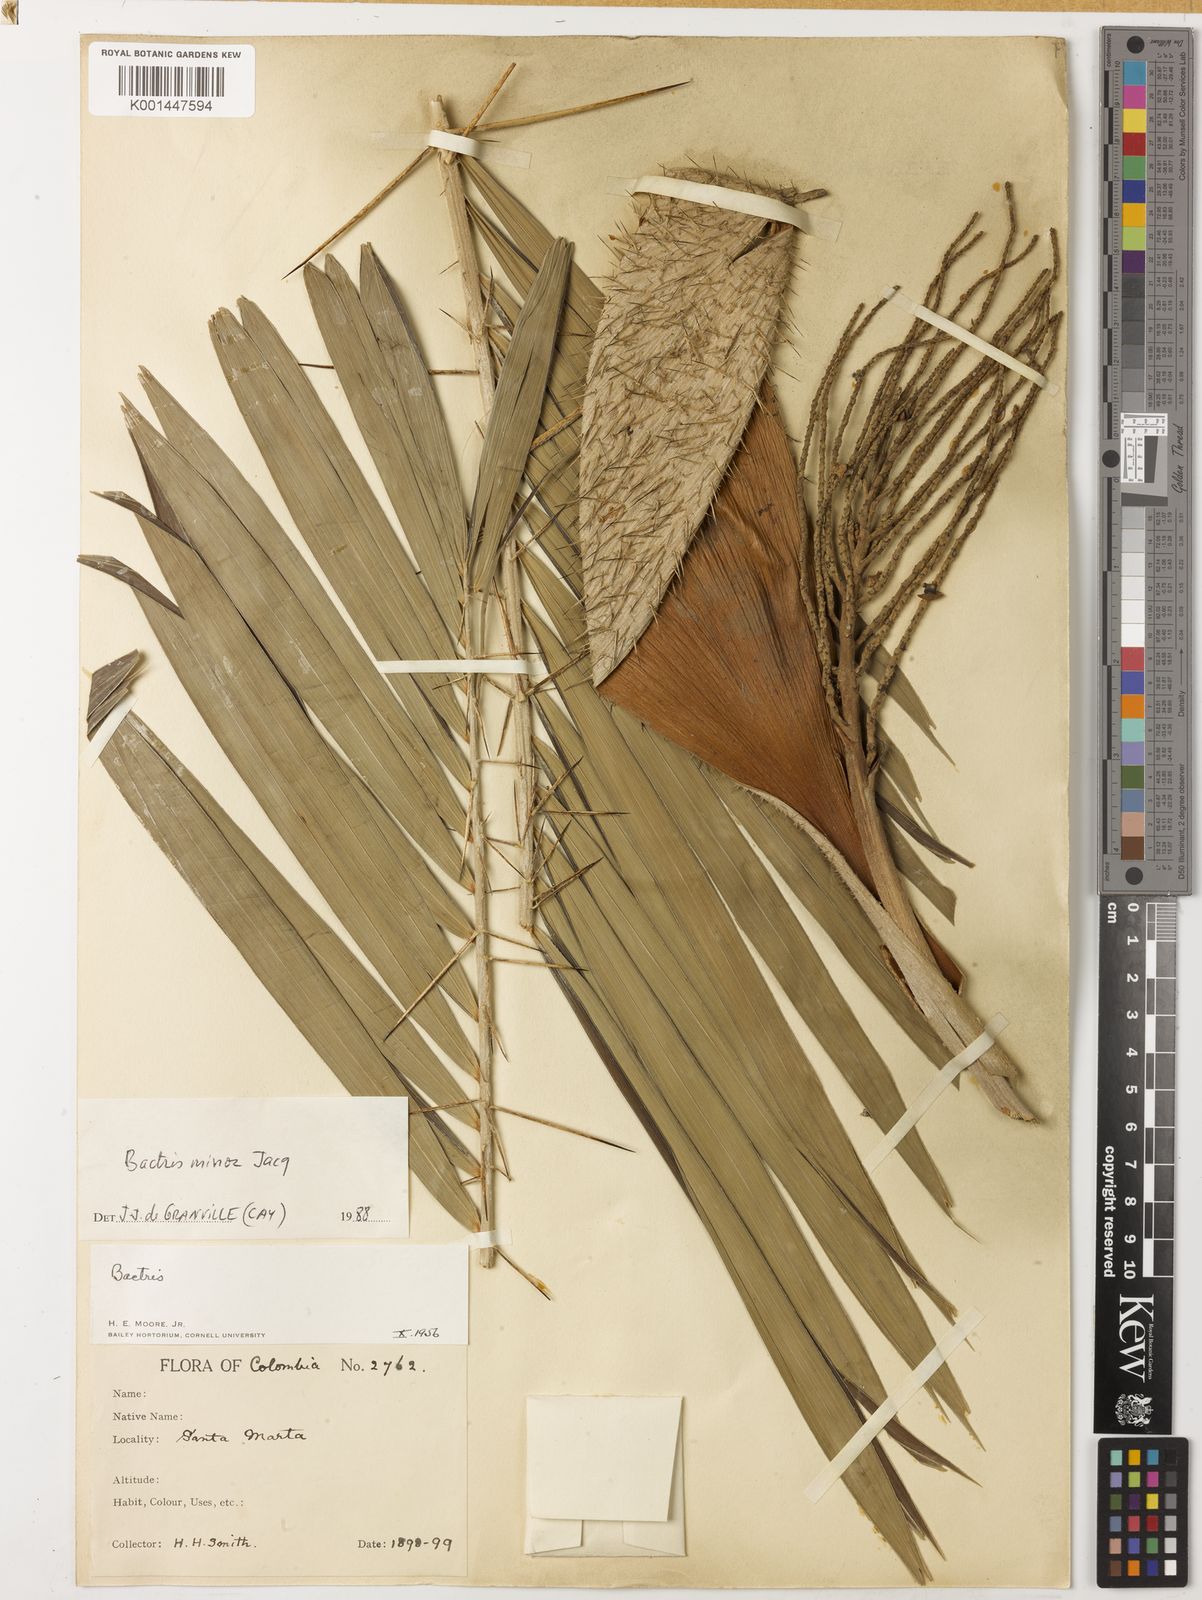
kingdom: Plantae
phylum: Tracheophyta
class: Liliopsida
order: Arecales
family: Arecaceae
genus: Bactris
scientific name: Bactris guineensis
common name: Tobago cane
